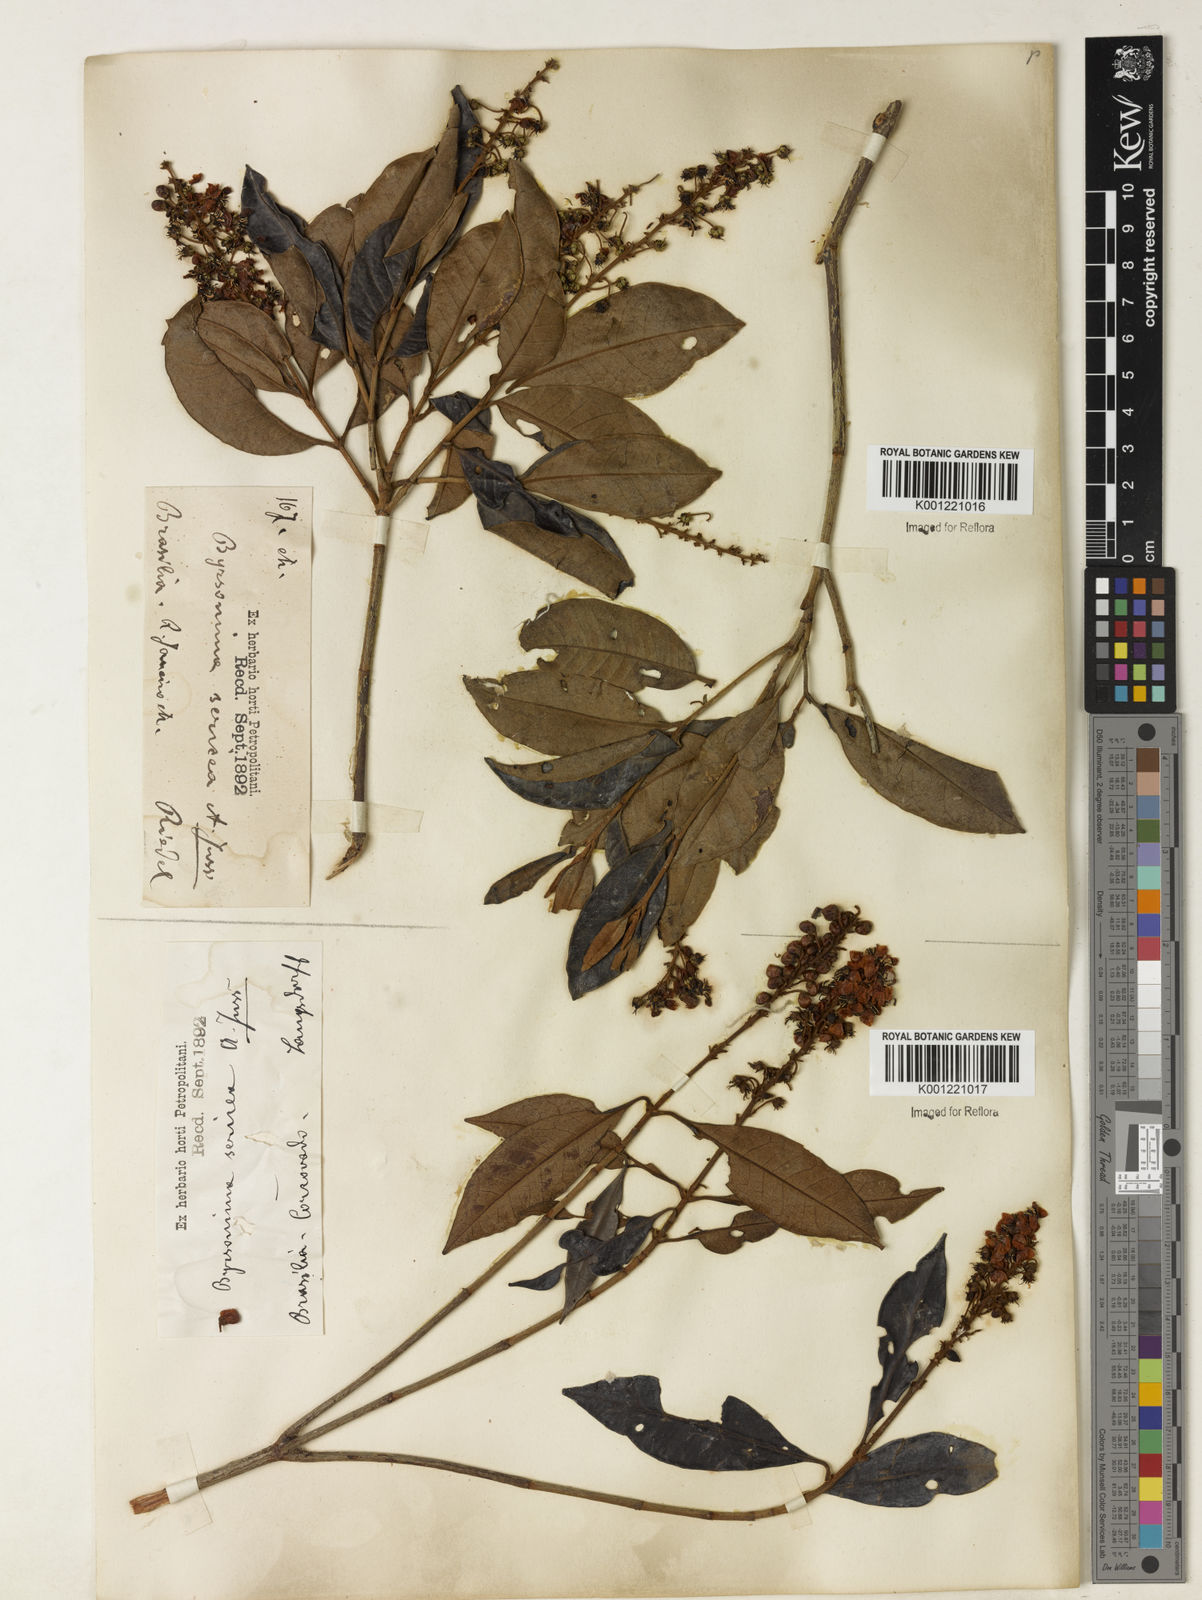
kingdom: Plantae
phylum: Tracheophyta
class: Magnoliopsida
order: Malpighiales
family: Malpighiaceae
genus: Byrsonima
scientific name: Byrsonima sericea
